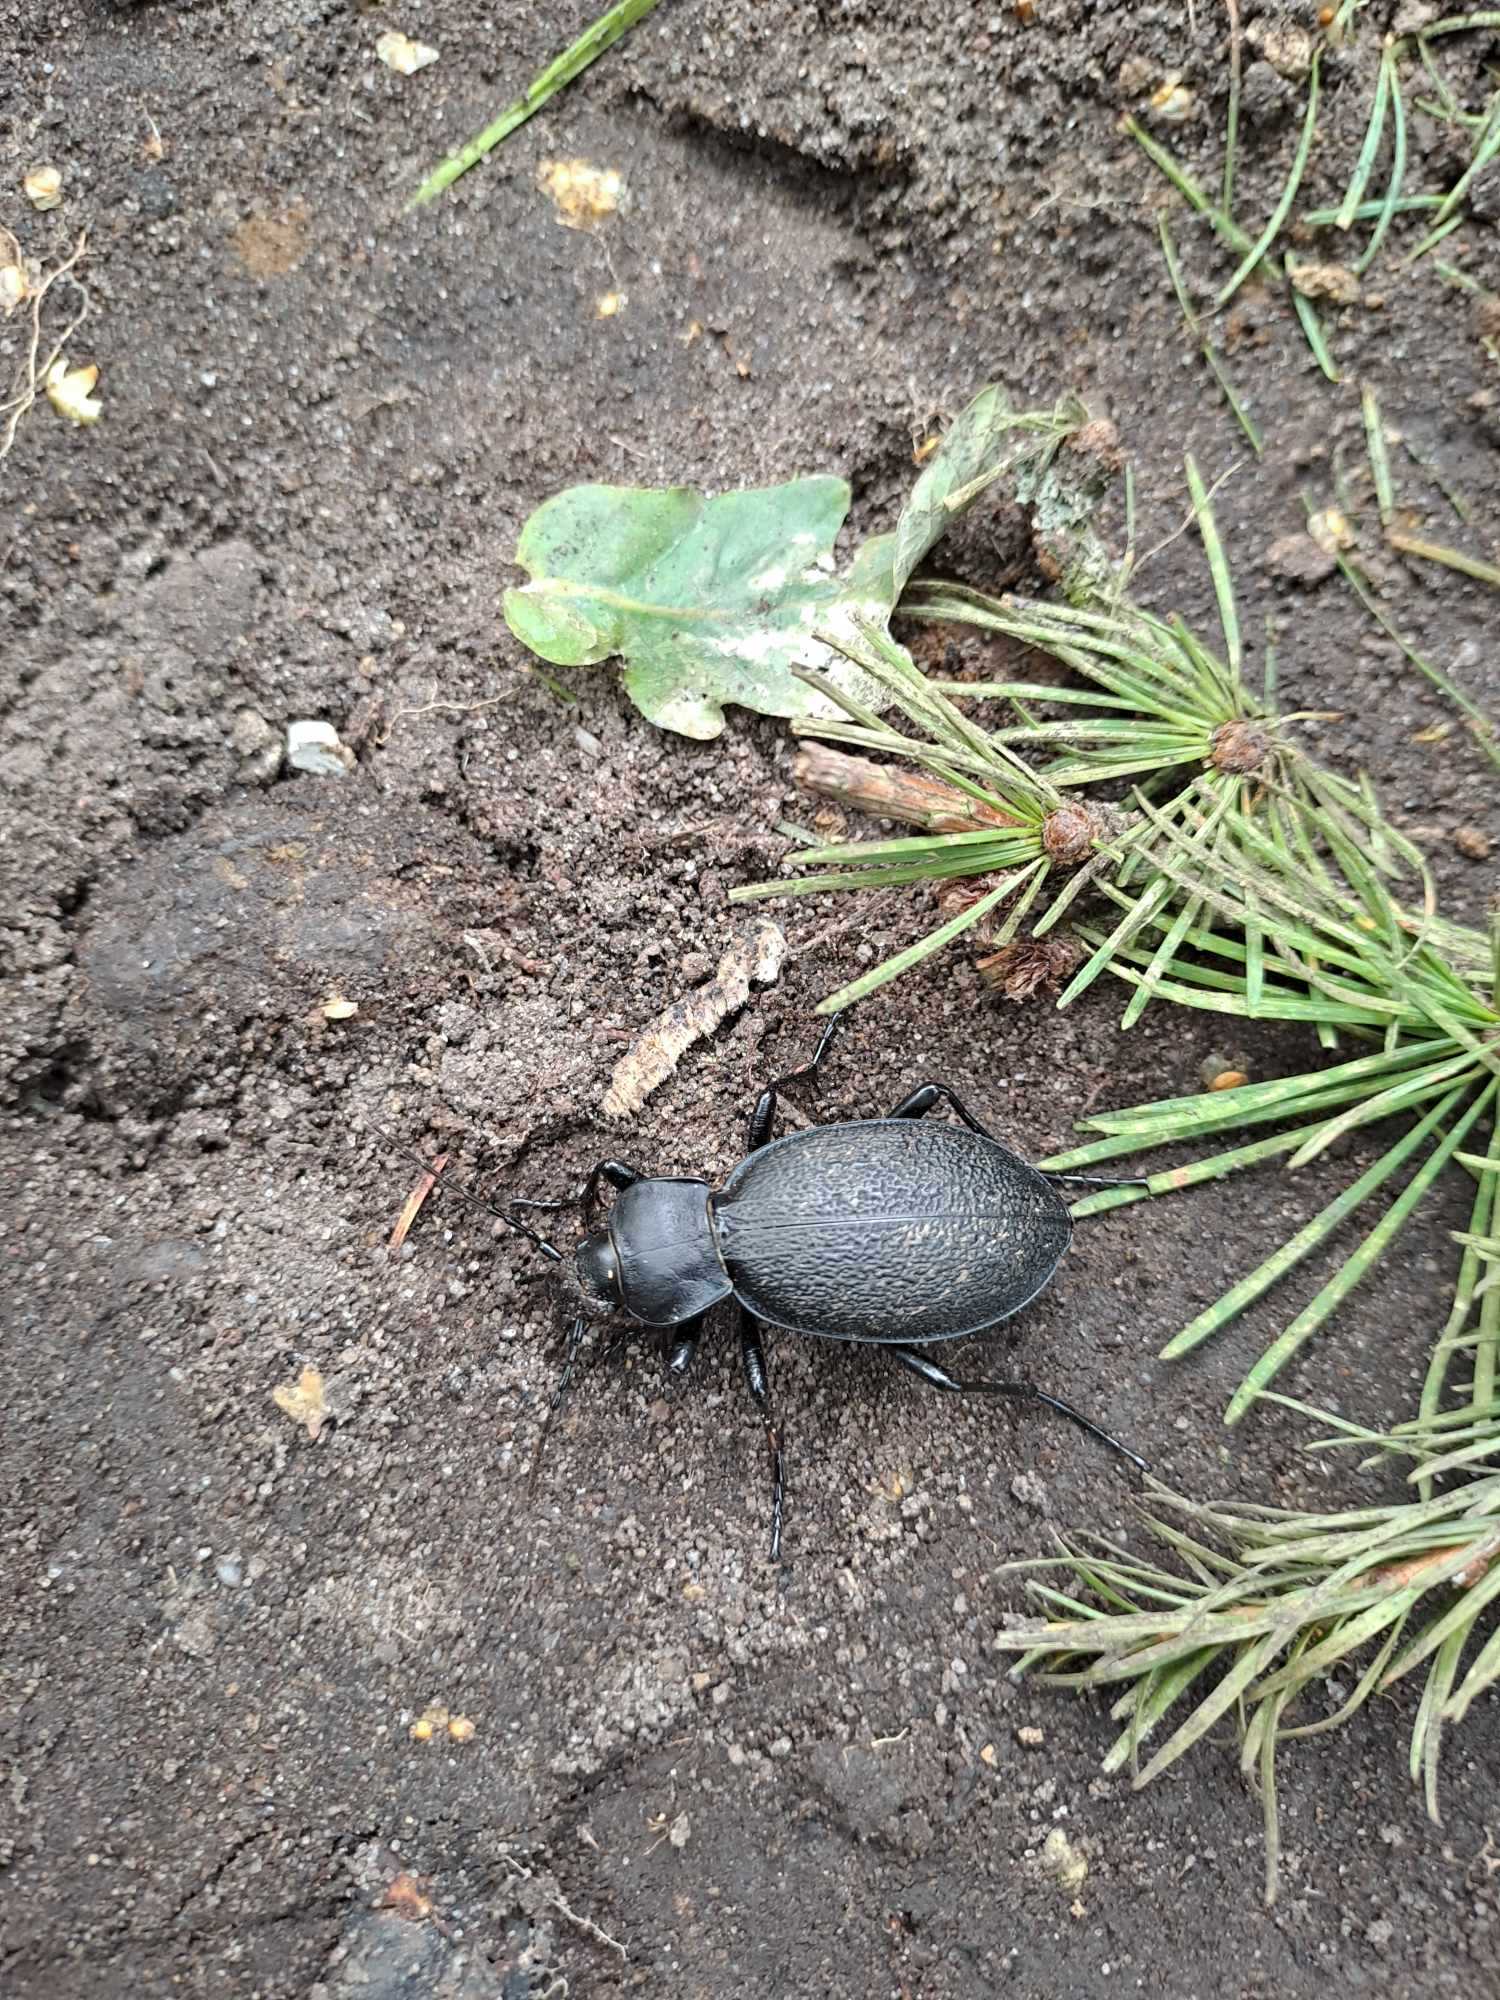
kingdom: Animalia
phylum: Arthropoda
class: Insecta
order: Coleoptera
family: Carabidae
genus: Carabus
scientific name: Carabus coriaceus
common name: Læderløber
